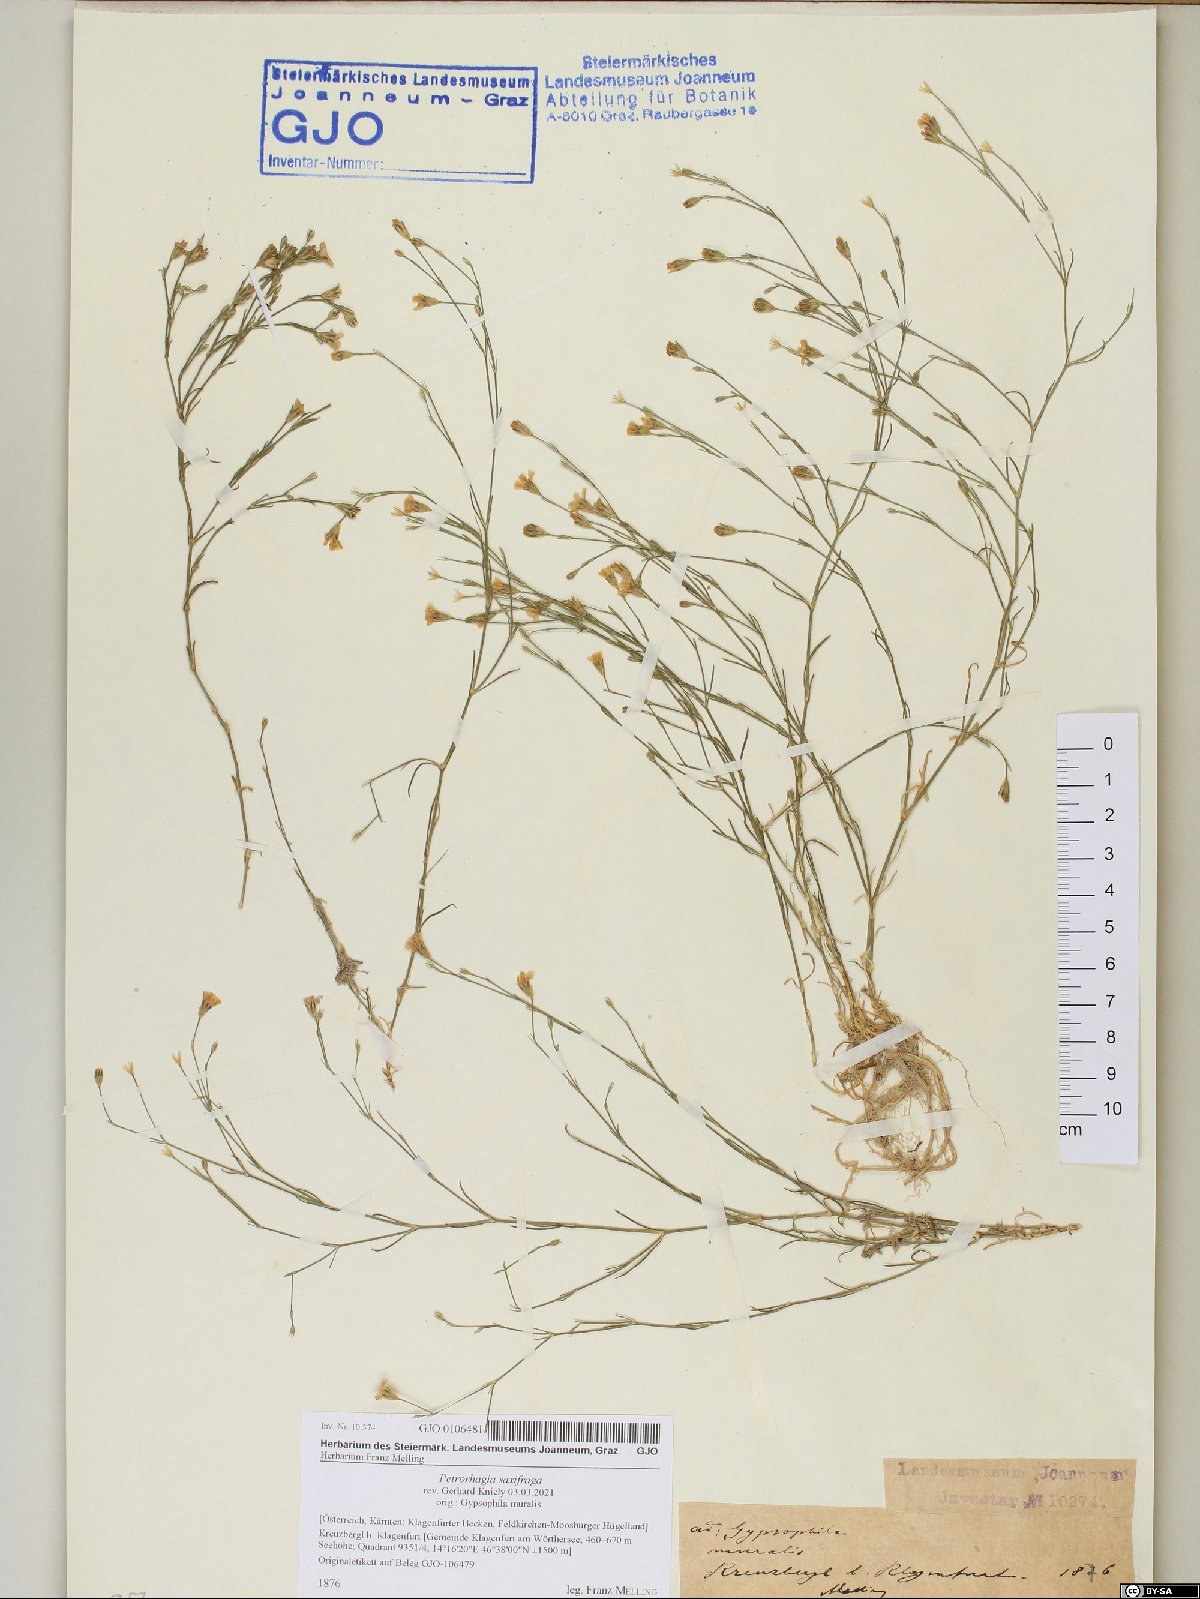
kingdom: Plantae
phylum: Tracheophyta
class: Magnoliopsida
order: Caryophyllales
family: Caryophyllaceae
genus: Petrorhagia
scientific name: Petrorhagia saxifraga
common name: Tunicflower
